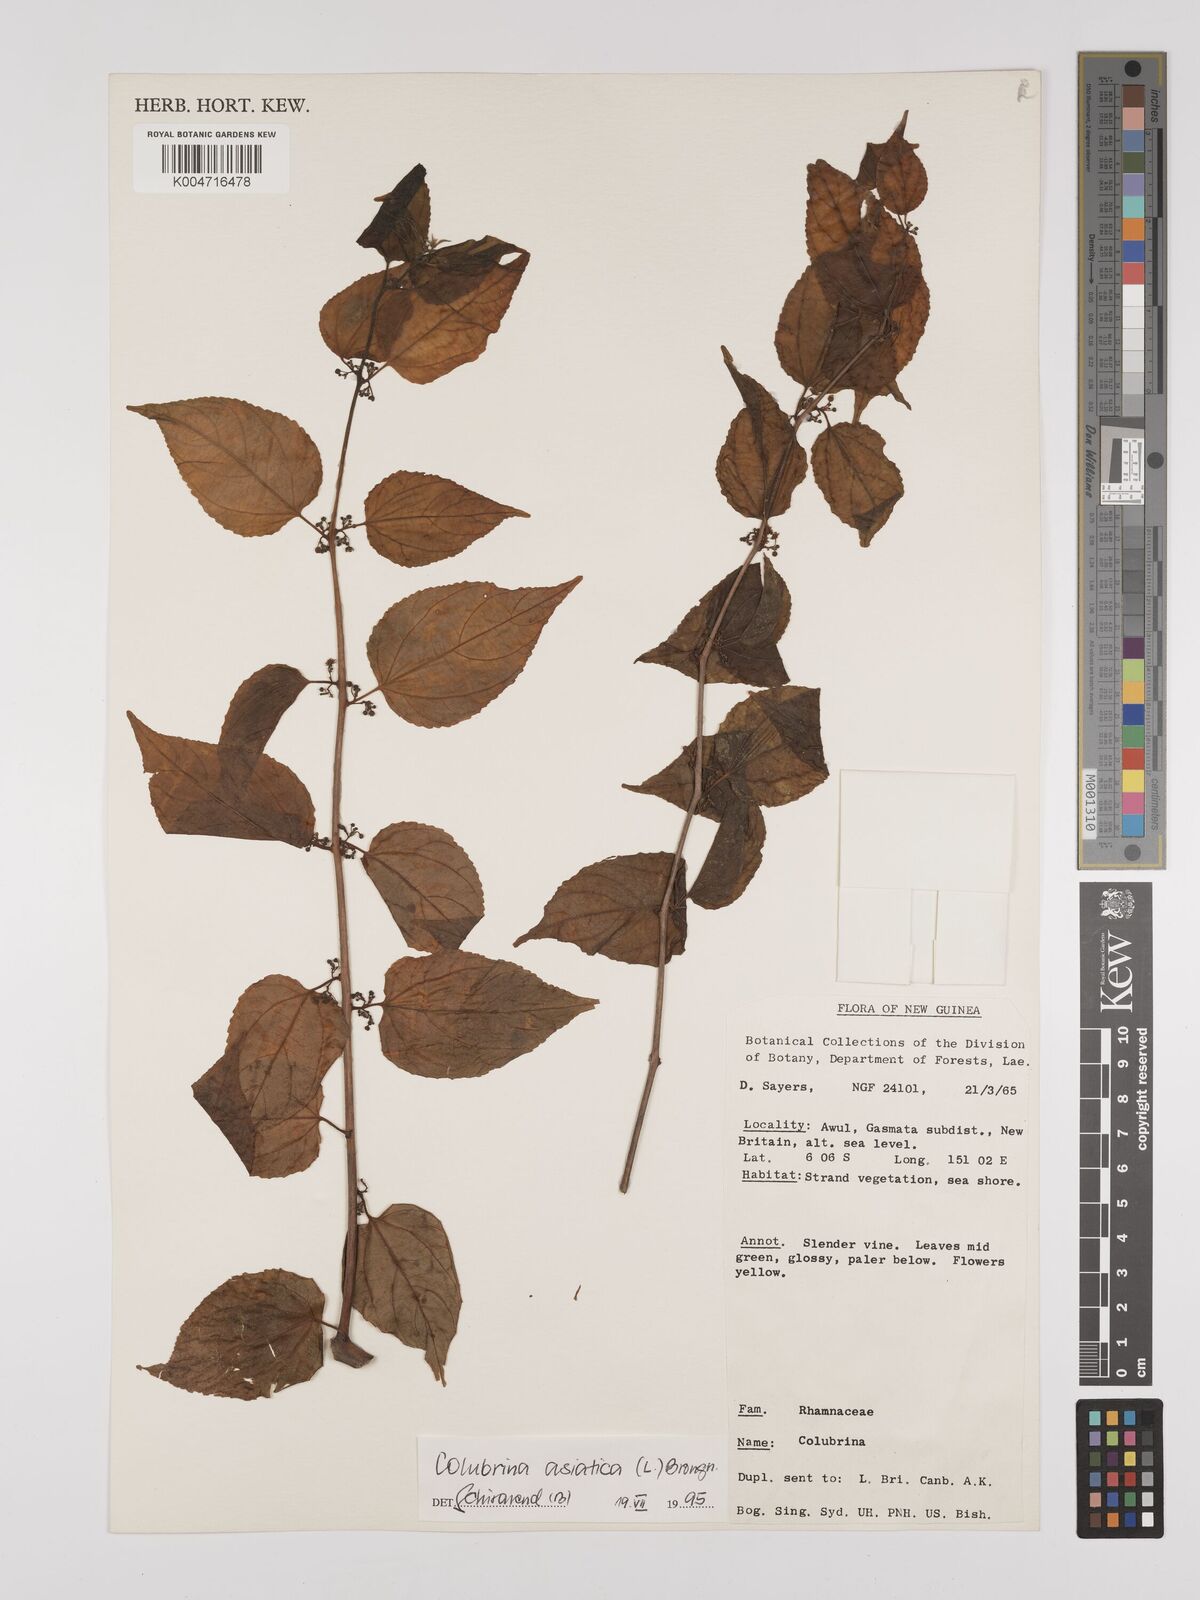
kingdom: Plantae
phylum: Tracheophyta
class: Magnoliopsida
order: Rosales
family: Rhamnaceae
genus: Colubrina
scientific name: Colubrina asiatica
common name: Asian nakedwood
